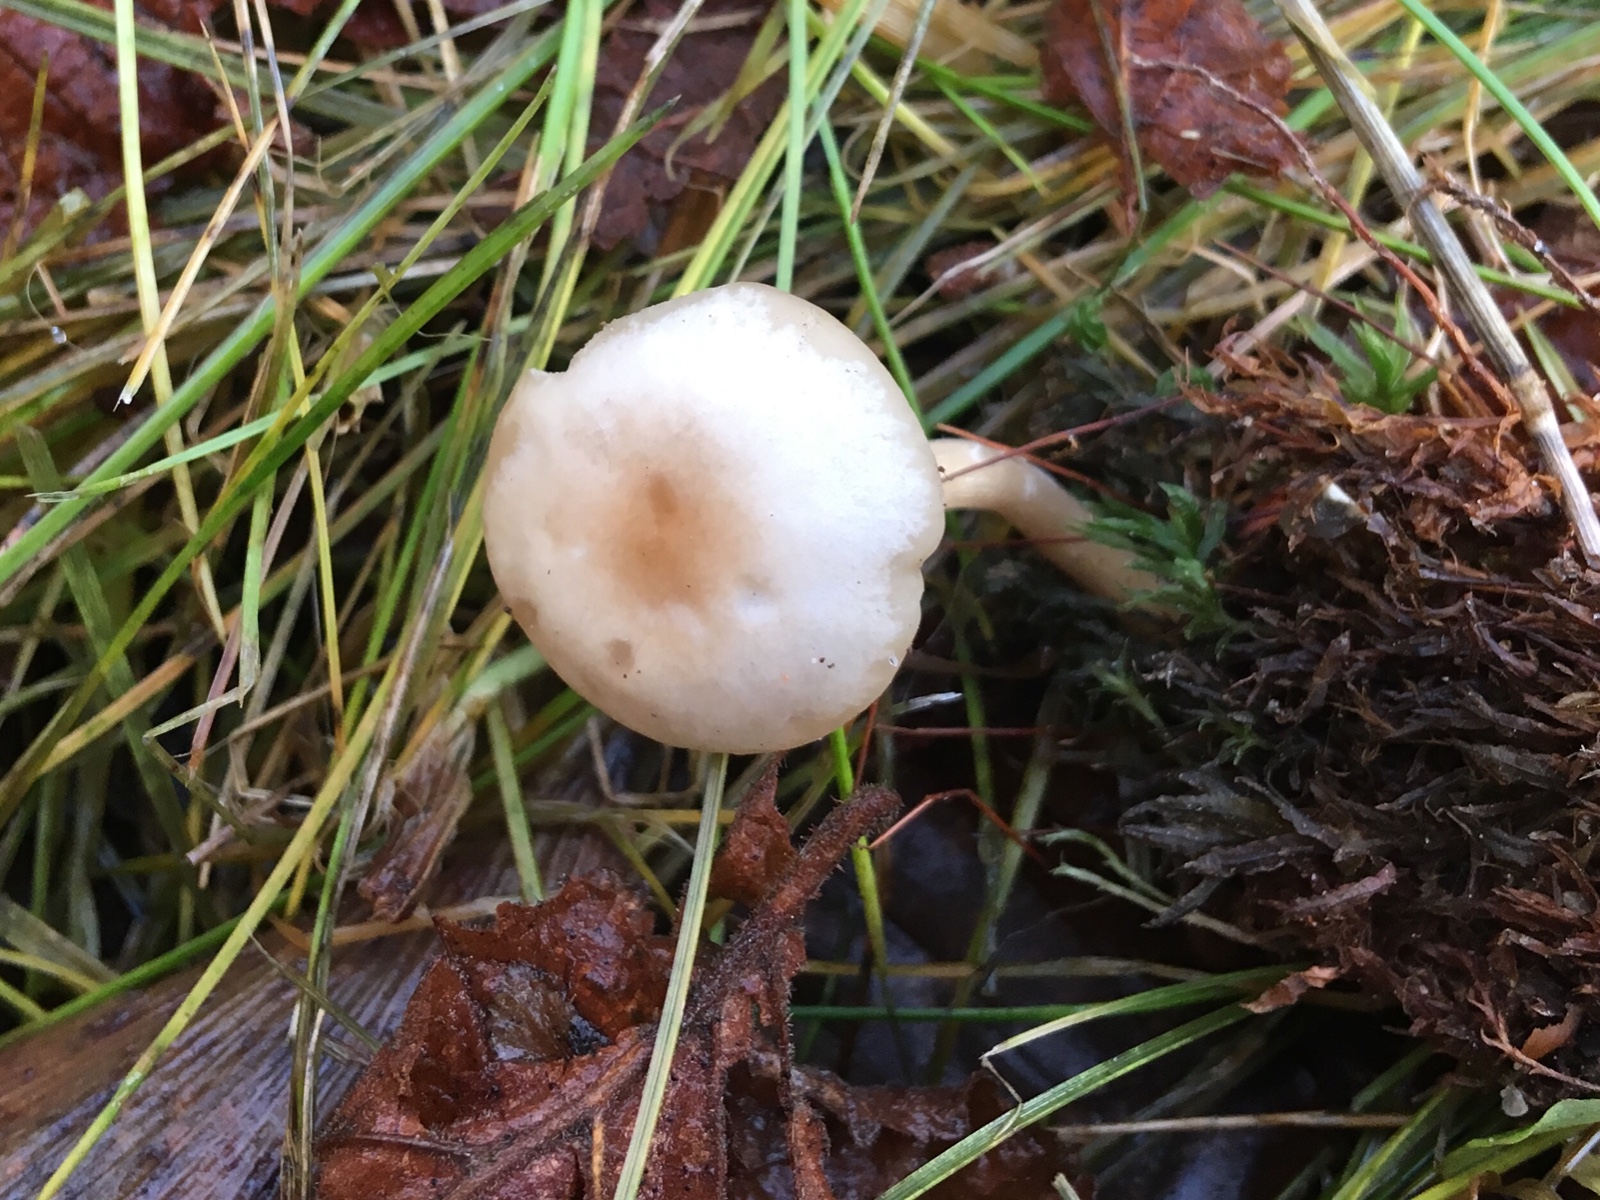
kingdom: Fungi
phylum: Basidiomycota
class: Agaricomycetes
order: Agaricales
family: Tricholomataceae
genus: Clitocybe
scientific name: Clitocybe fragrans
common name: vellugtende tragthat
